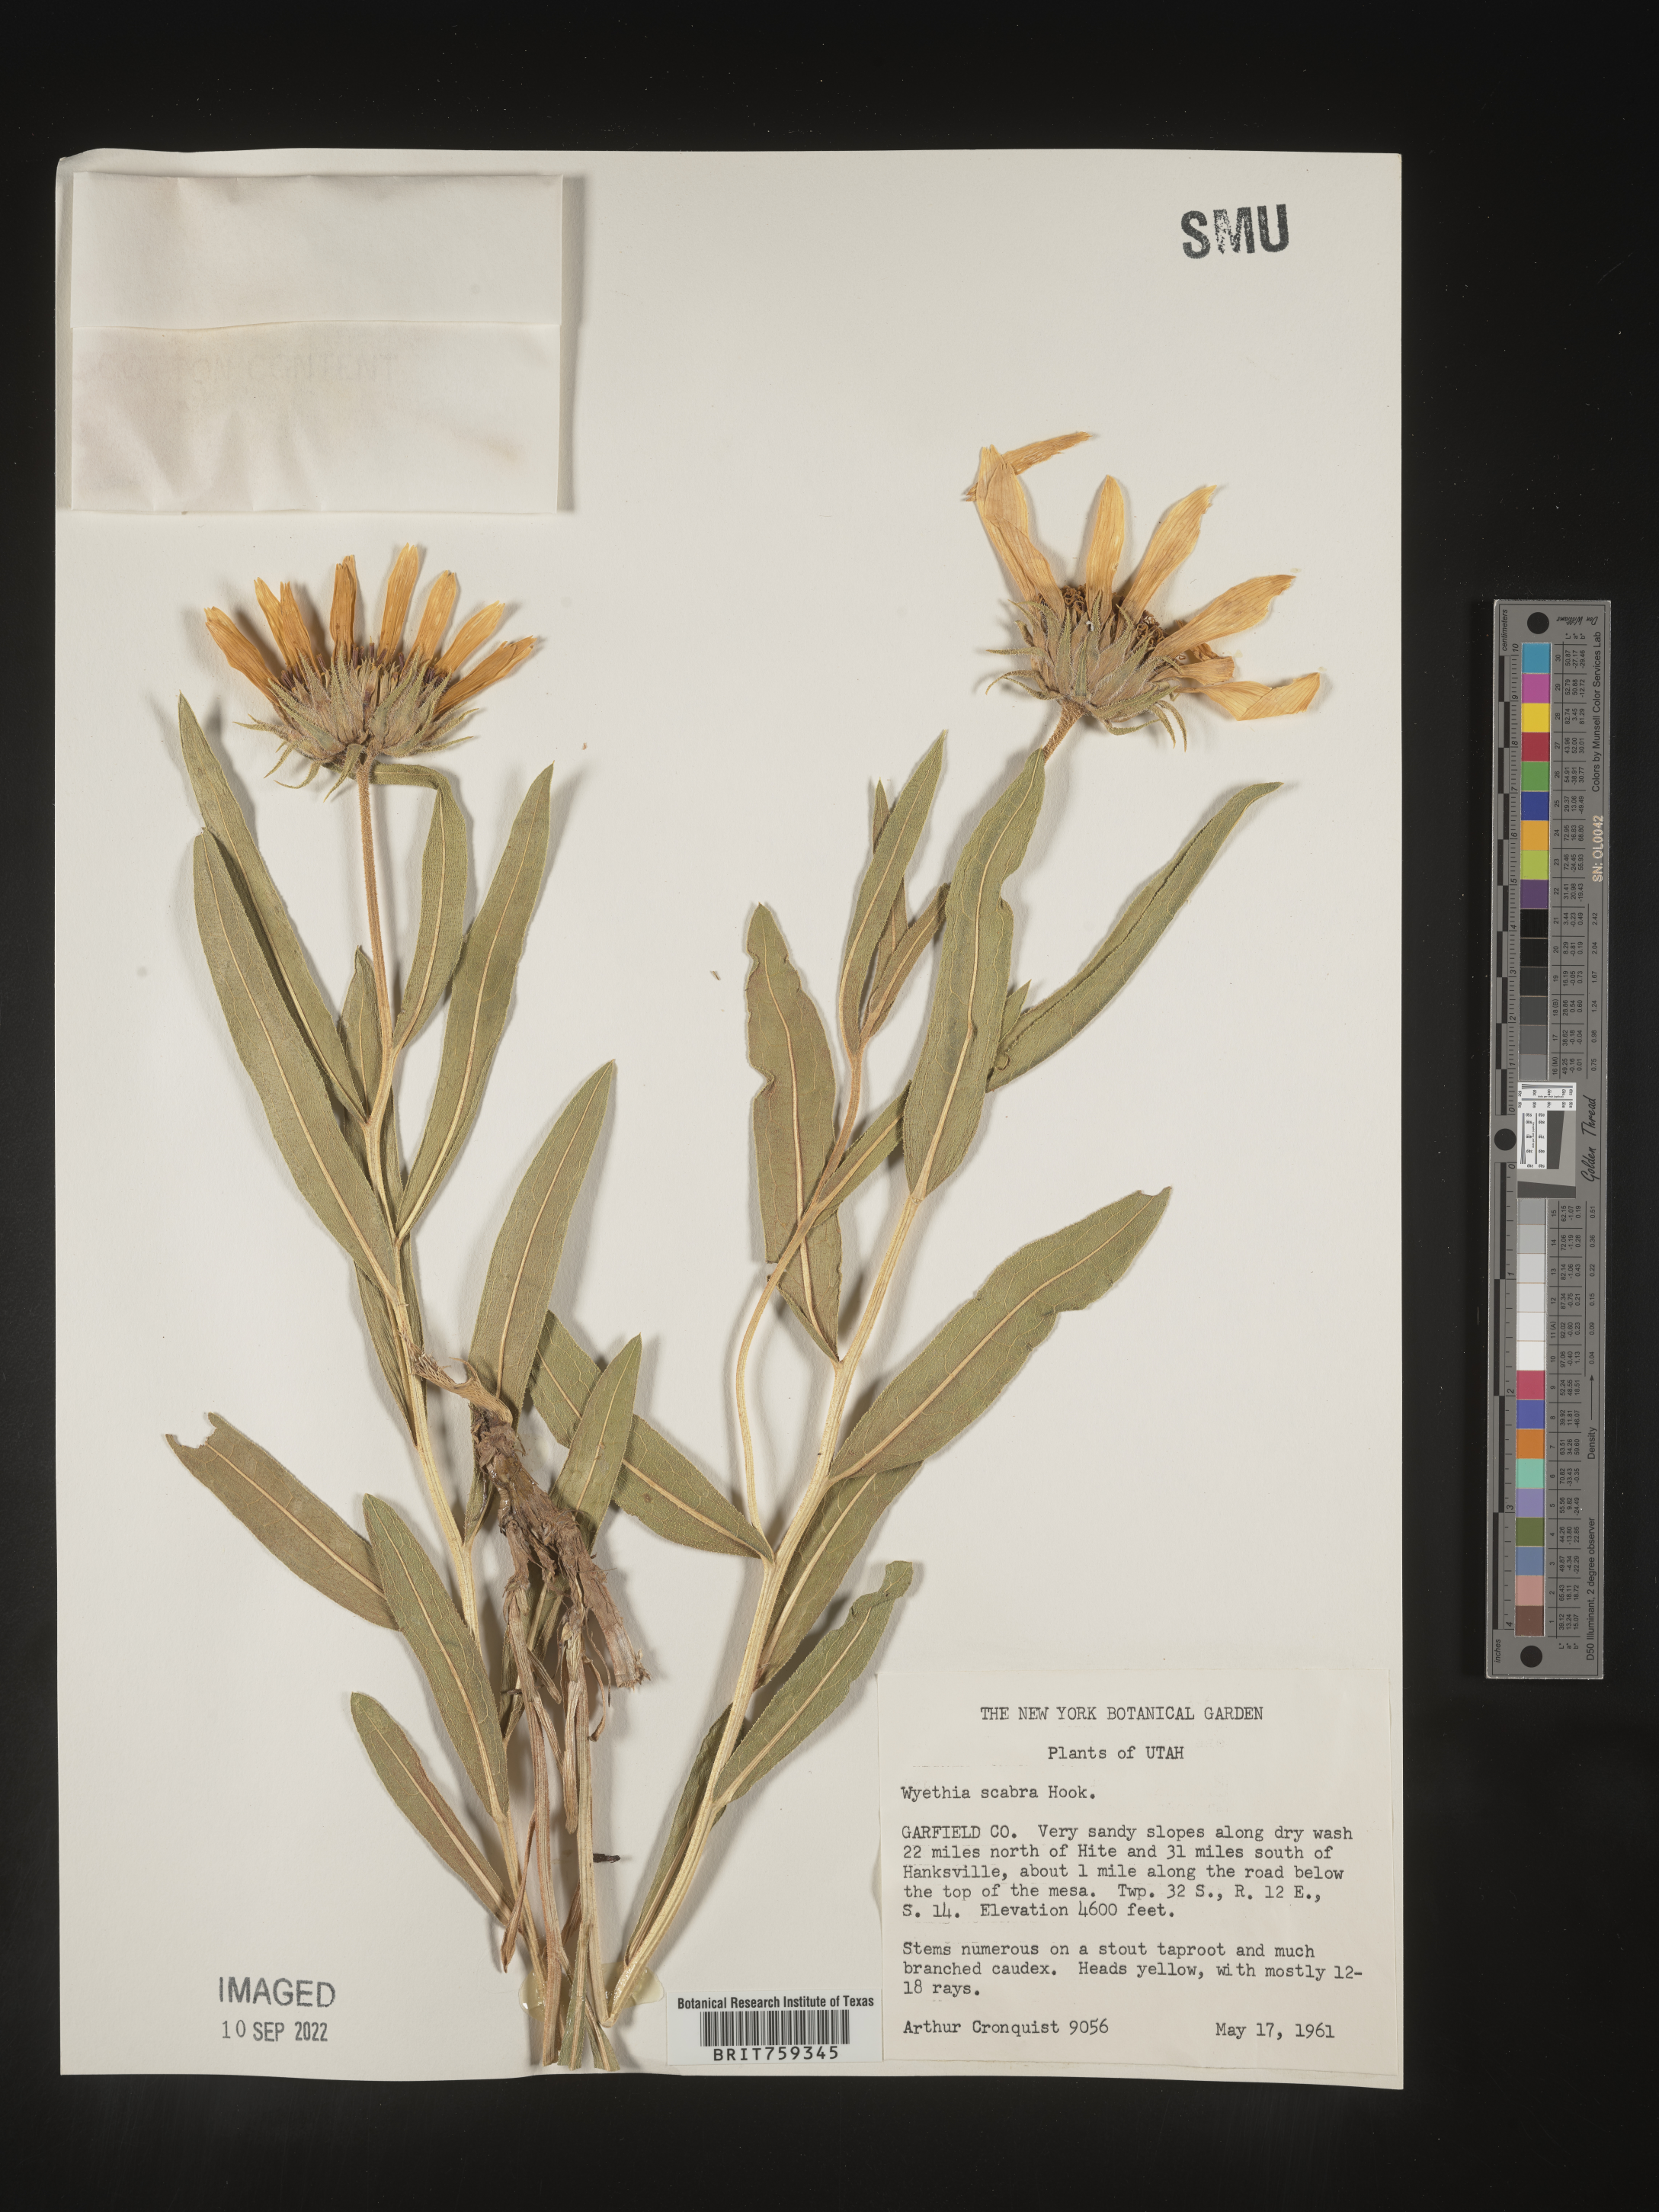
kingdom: Plantae
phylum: Tracheophyta
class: Magnoliopsida
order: Asterales
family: Asteraceae
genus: Scabrethia
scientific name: Scabrethia scabra
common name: Rough mules's-ears
